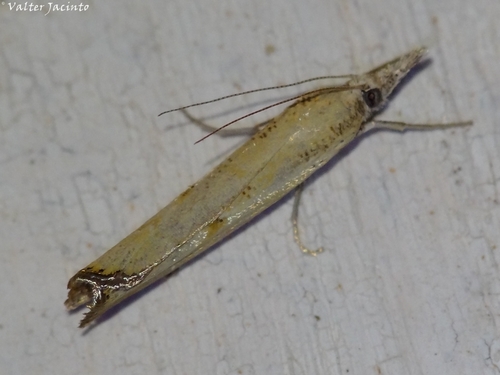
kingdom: Animalia
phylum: Arthropoda
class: Insecta
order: Lepidoptera
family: Crambidae
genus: Agriphila
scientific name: Agriphila inquinatella
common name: Barred grass-veneer
